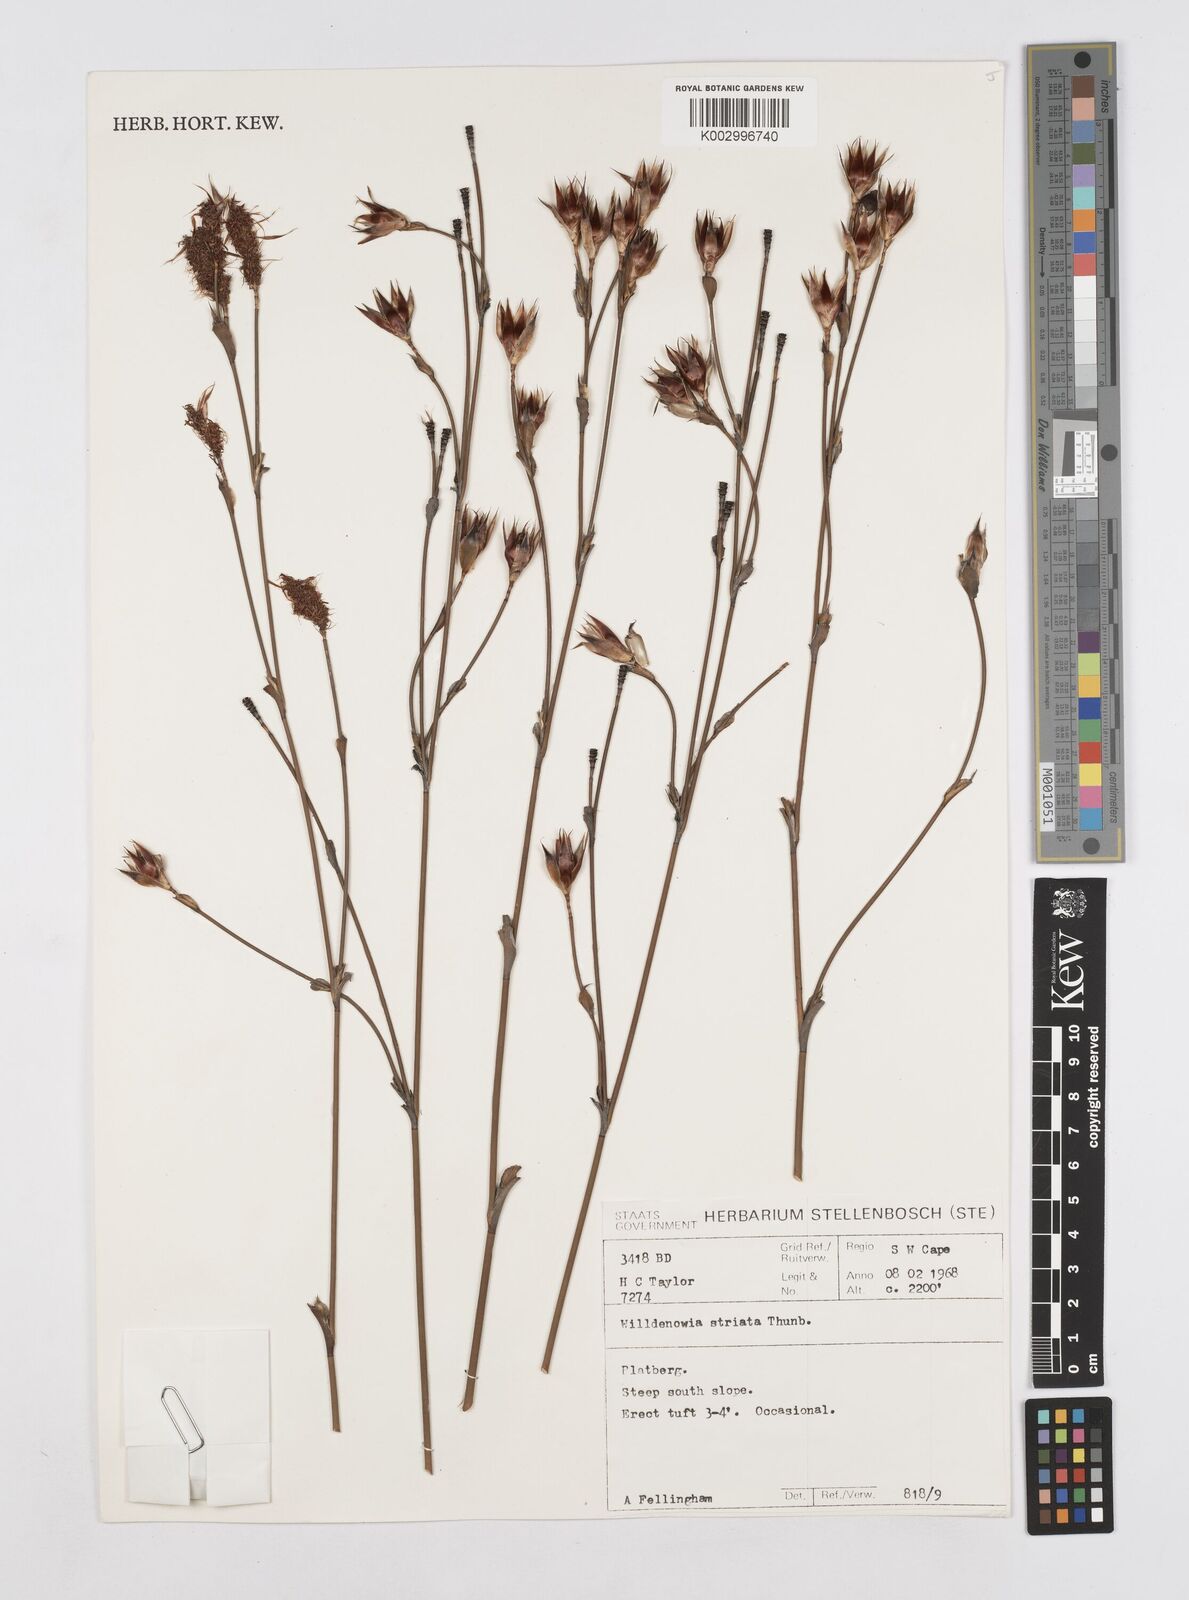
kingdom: Plantae
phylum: Tracheophyta
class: Liliopsida
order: Poales
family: Restionaceae
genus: Willdenowia
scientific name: Willdenowia incurvata
